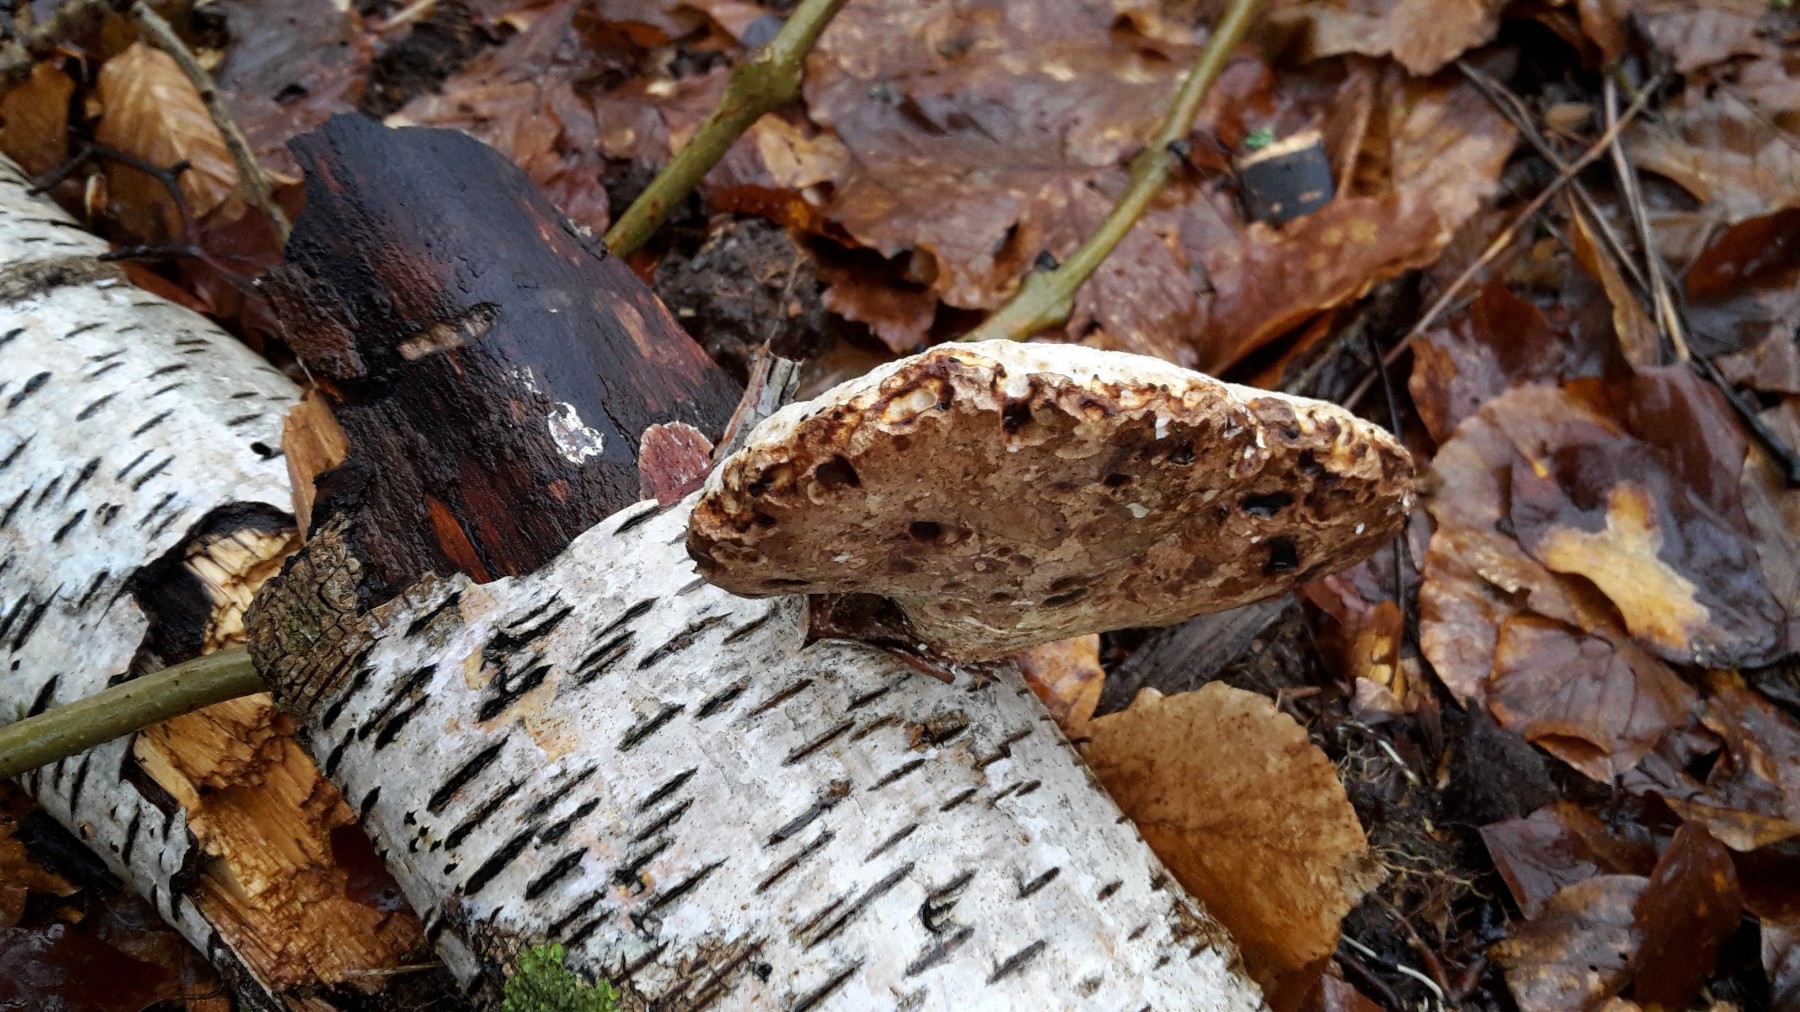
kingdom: Fungi
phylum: Basidiomycota
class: Agaricomycetes
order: Polyporales
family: Fomitopsidaceae
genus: Fomitopsis
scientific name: Fomitopsis betulina
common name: birkeporesvamp
